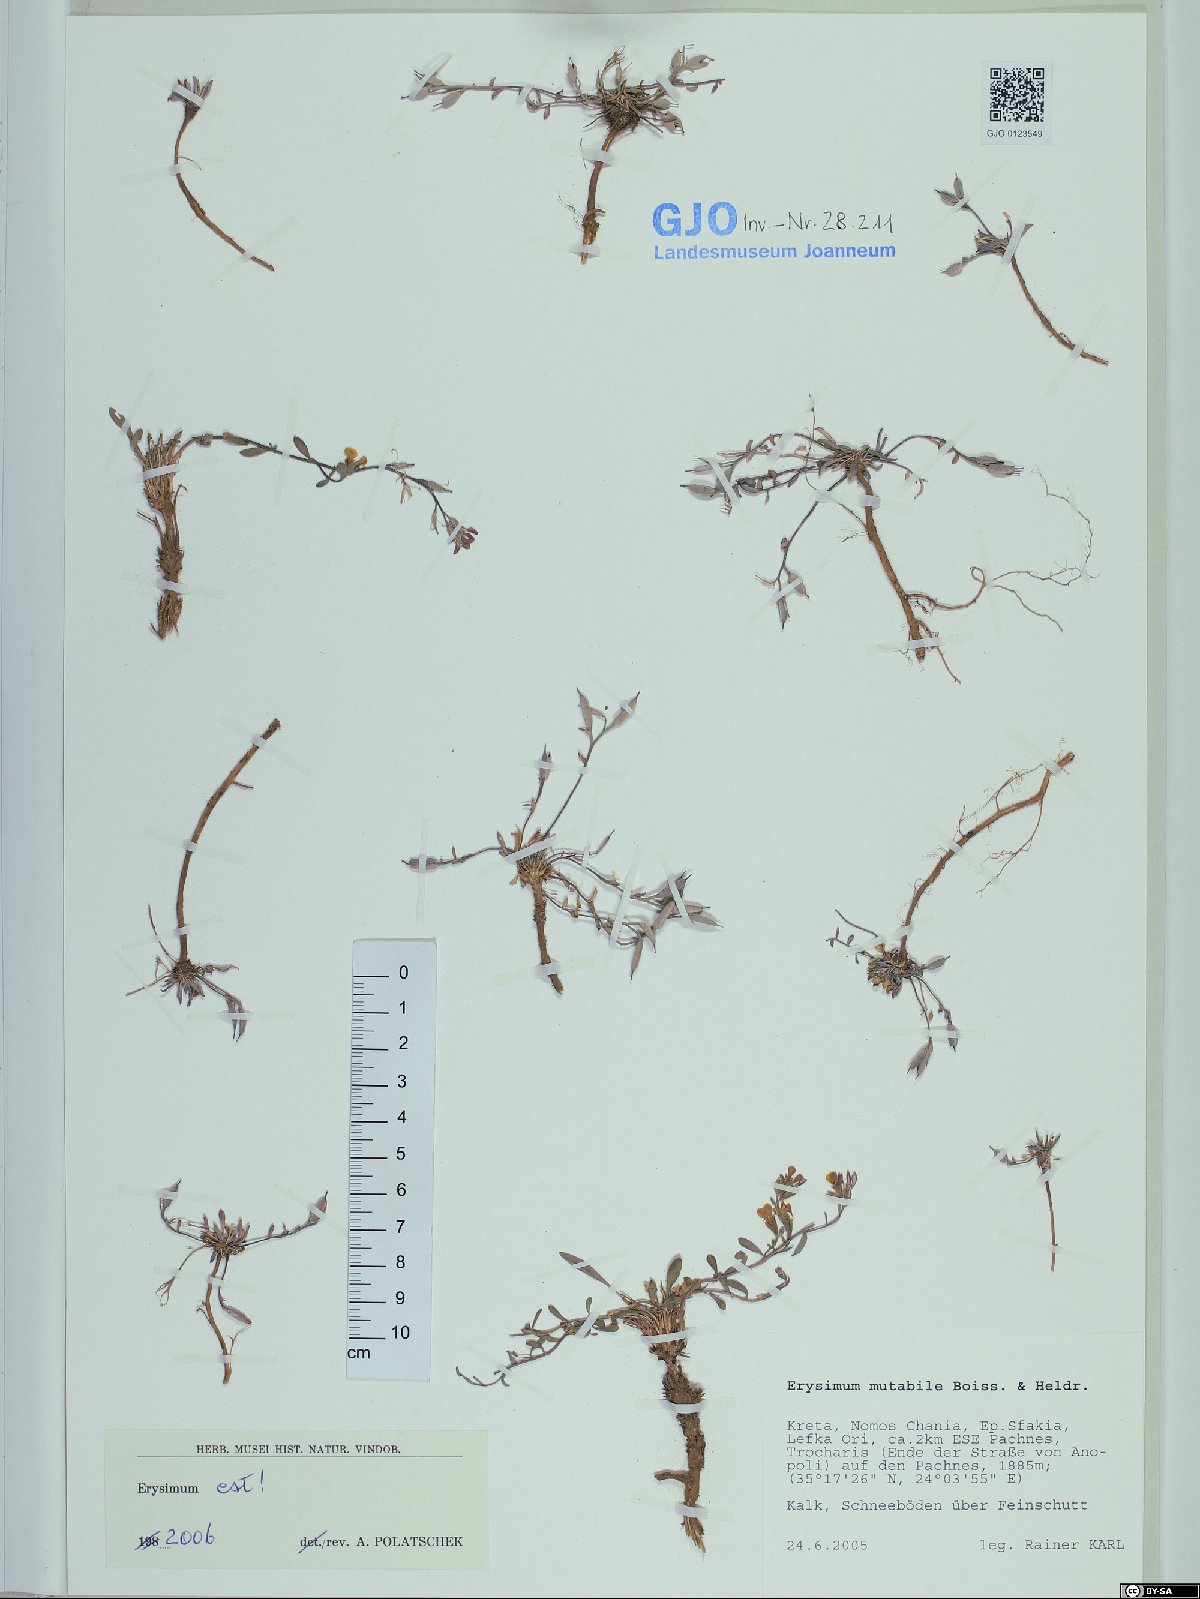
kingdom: Plantae
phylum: Tracheophyta
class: Magnoliopsida
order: Brassicales
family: Brassicaceae
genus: Erysimum
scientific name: Erysimum mutabile
